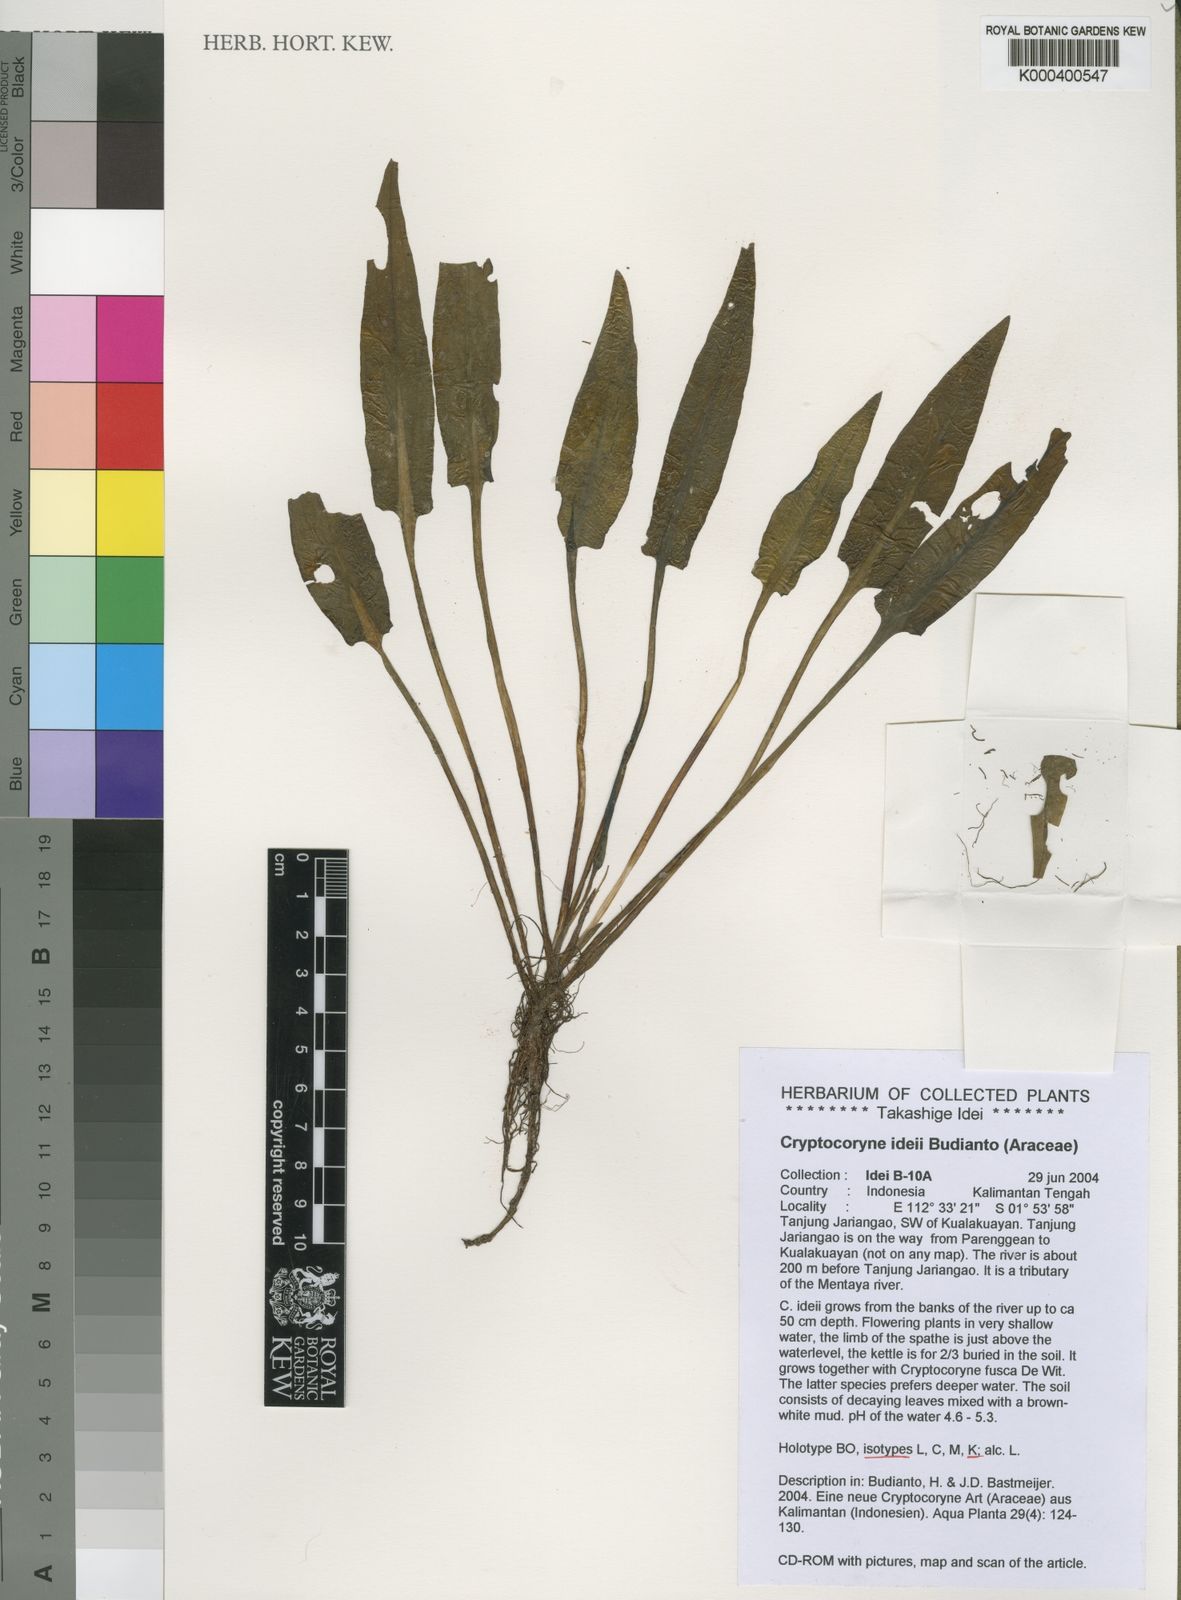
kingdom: Plantae
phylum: Tracheophyta
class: Liliopsida
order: Alismatales
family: Araceae
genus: Cryptocoryne
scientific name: Cryptocoryne ideii
